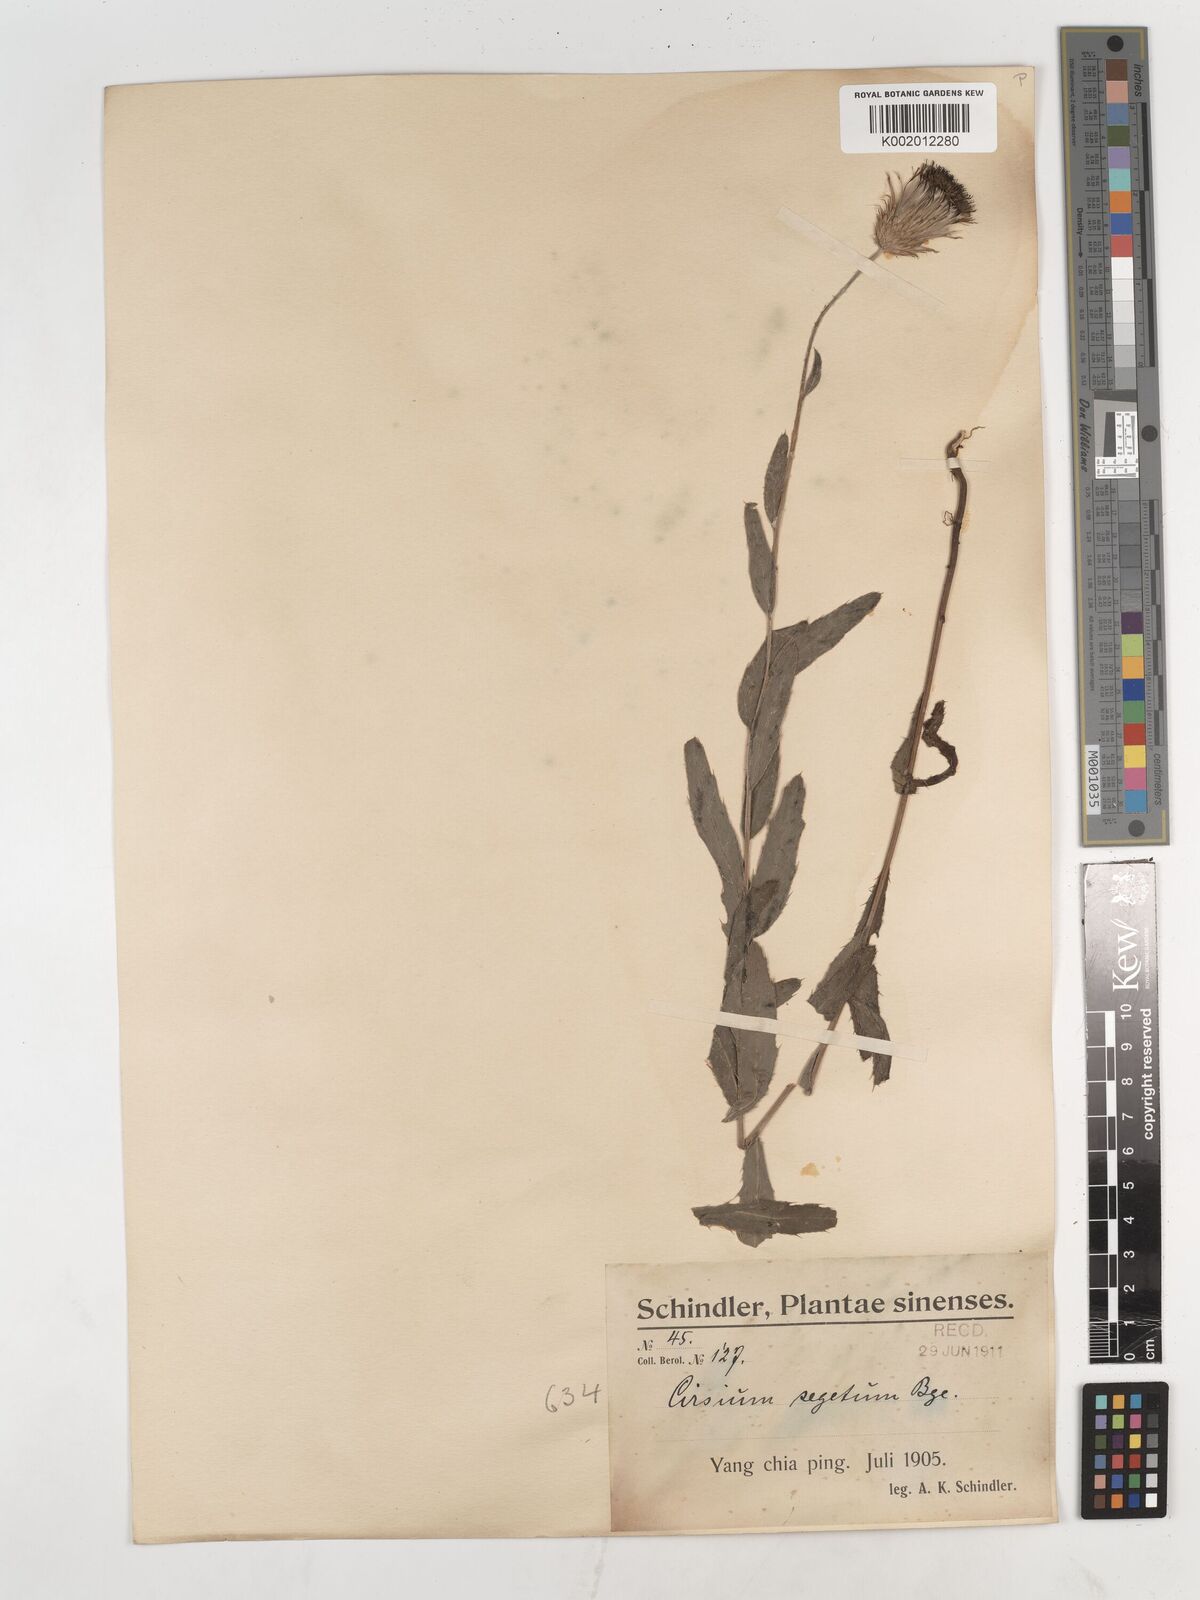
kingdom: Plantae
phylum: Tracheophyta
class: Magnoliopsida
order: Asterales
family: Asteraceae
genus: Cirsium
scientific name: Cirsium arvense
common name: Creeping thistle
